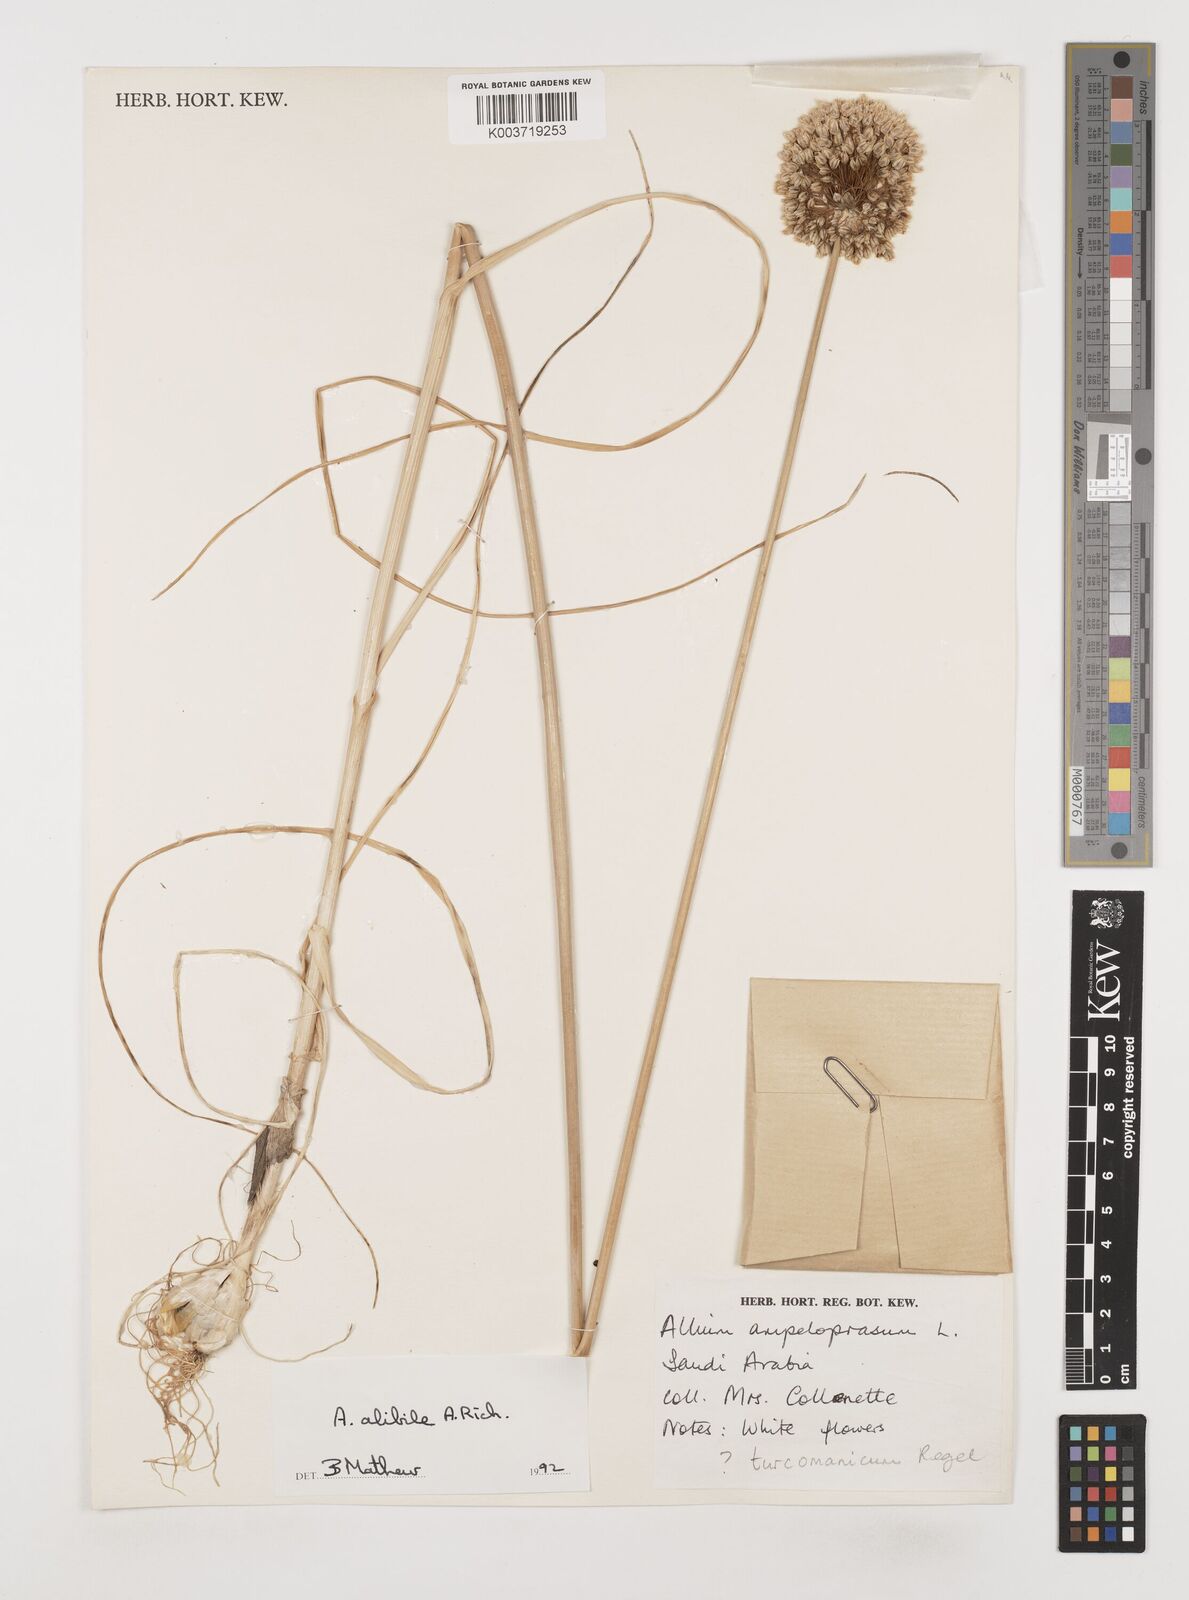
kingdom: Plantae
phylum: Tracheophyta
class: Liliopsida
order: Asparagales
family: Amaryllidaceae
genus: Allium
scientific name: Allium alibile
